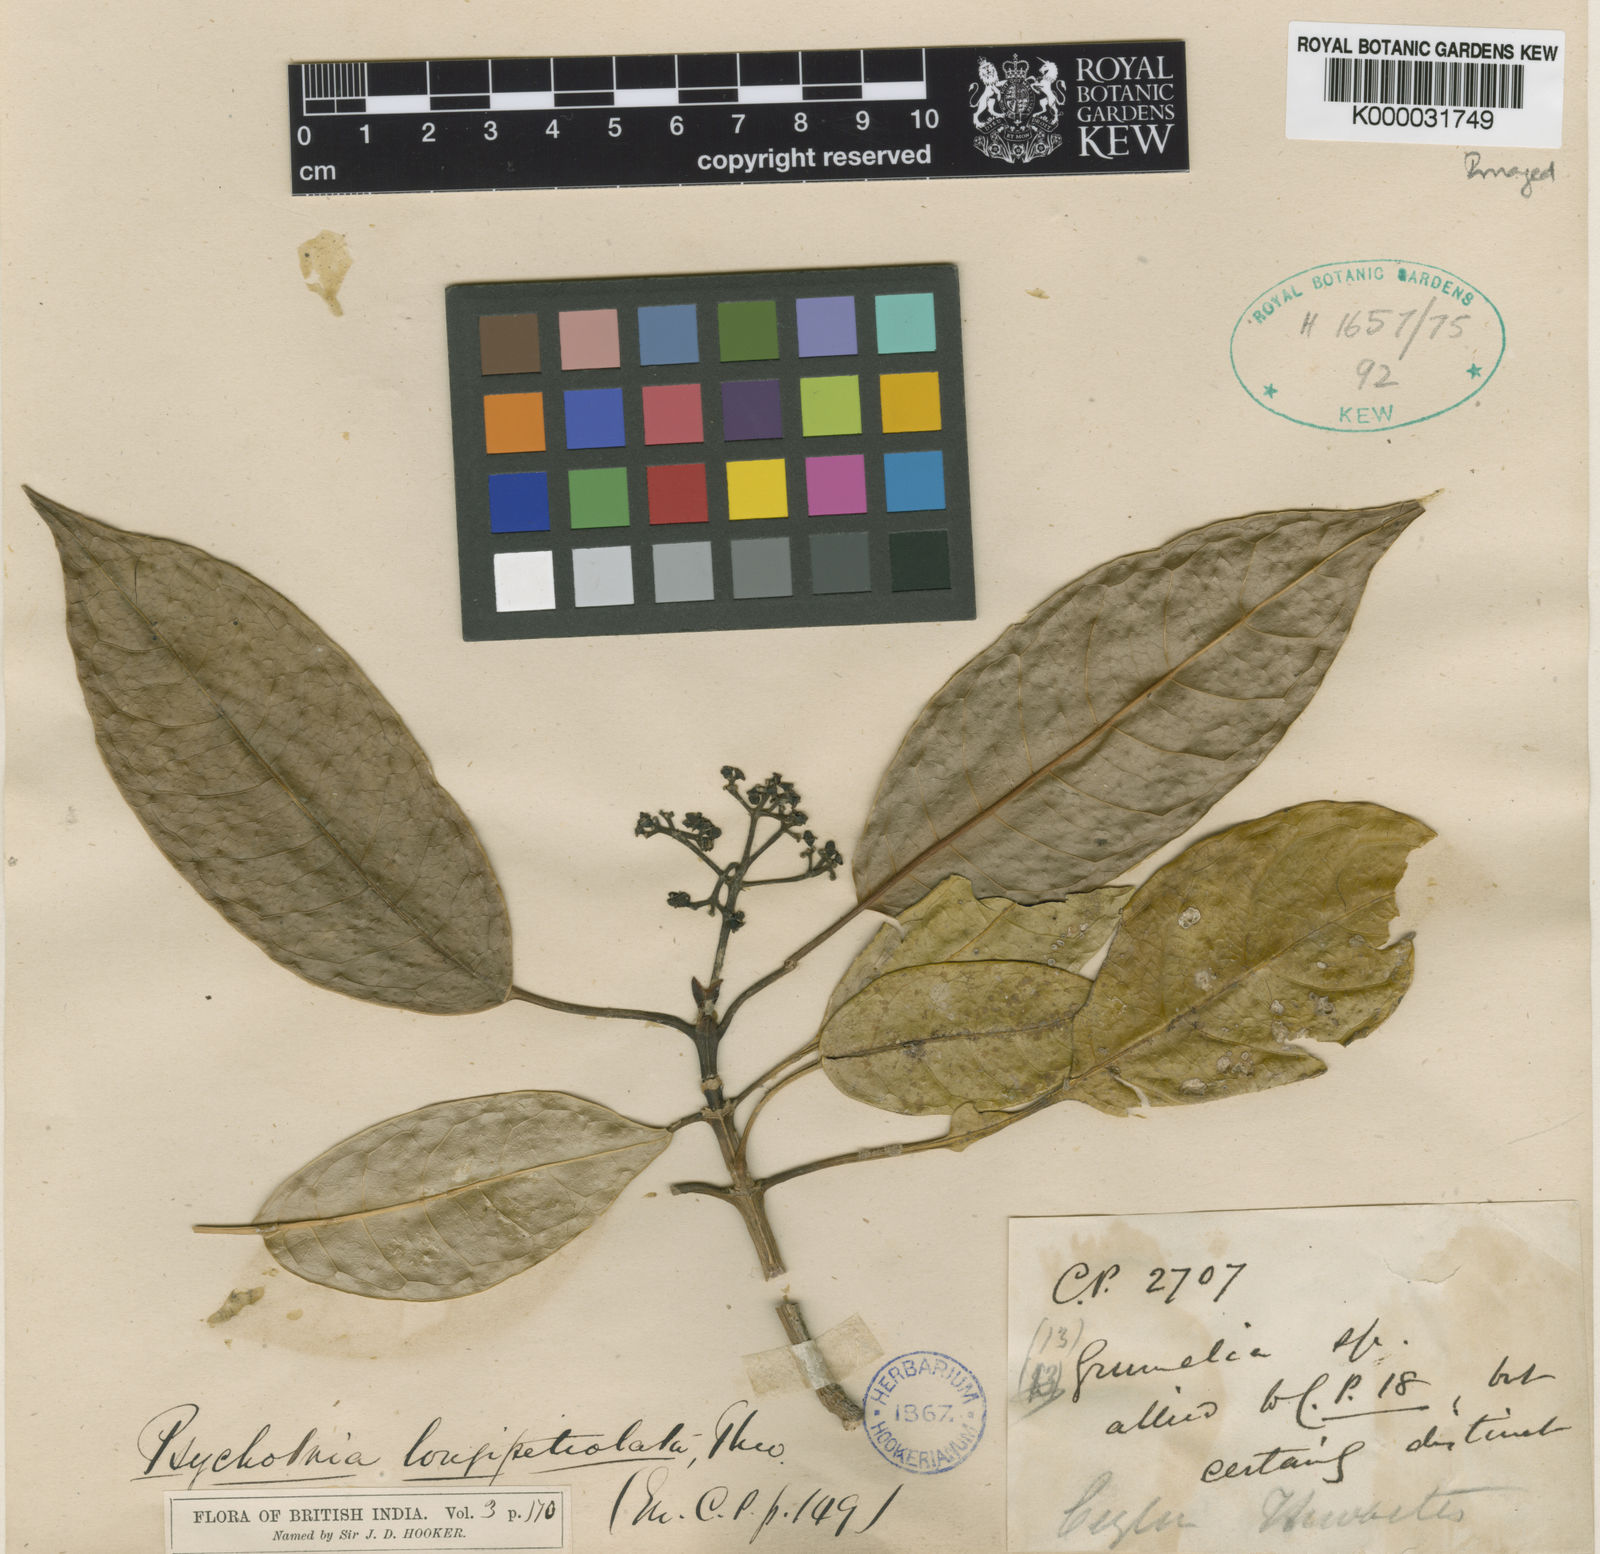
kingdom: Plantae
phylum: Tracheophyta
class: Magnoliopsida
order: Gentianales
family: Rubiaceae
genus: Psychotria
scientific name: Psychotria longipetiolata
